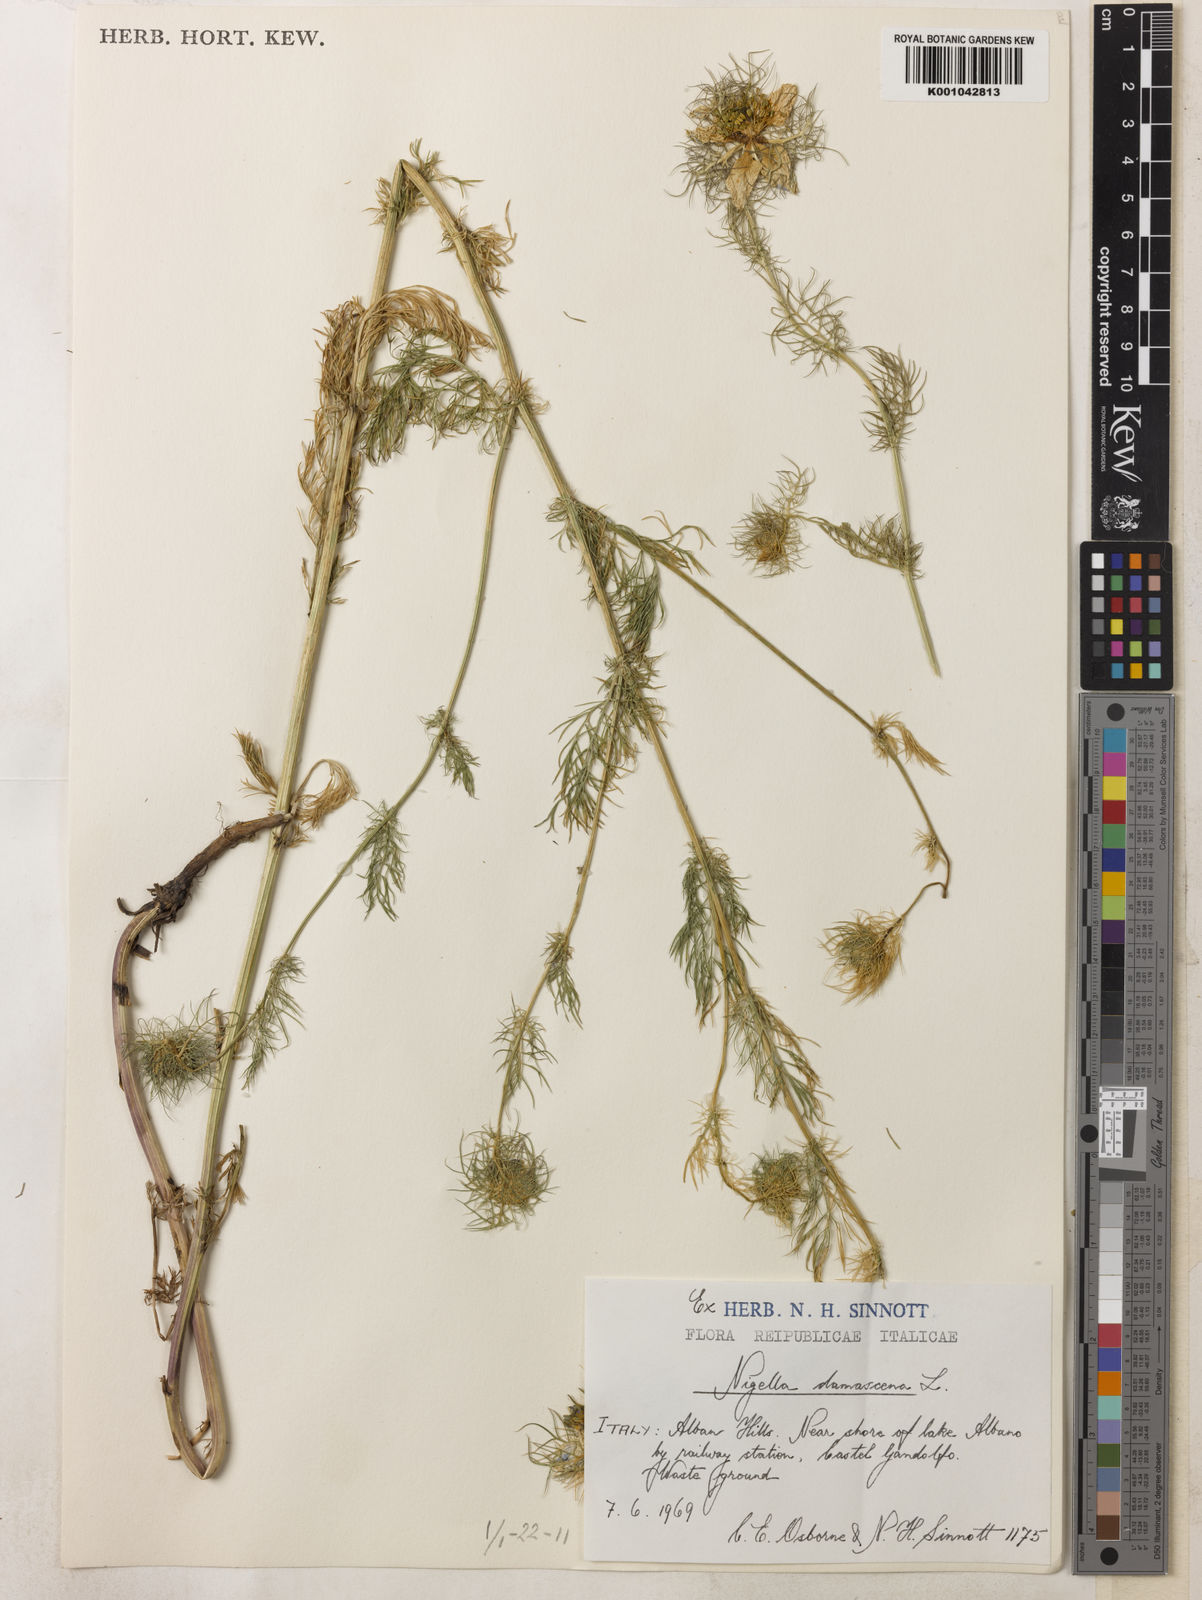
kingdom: Plantae
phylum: Tracheophyta
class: Magnoliopsida
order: Ranunculales
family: Ranunculaceae
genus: Nigella
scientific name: Nigella damascena
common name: Love-in-a-mist
